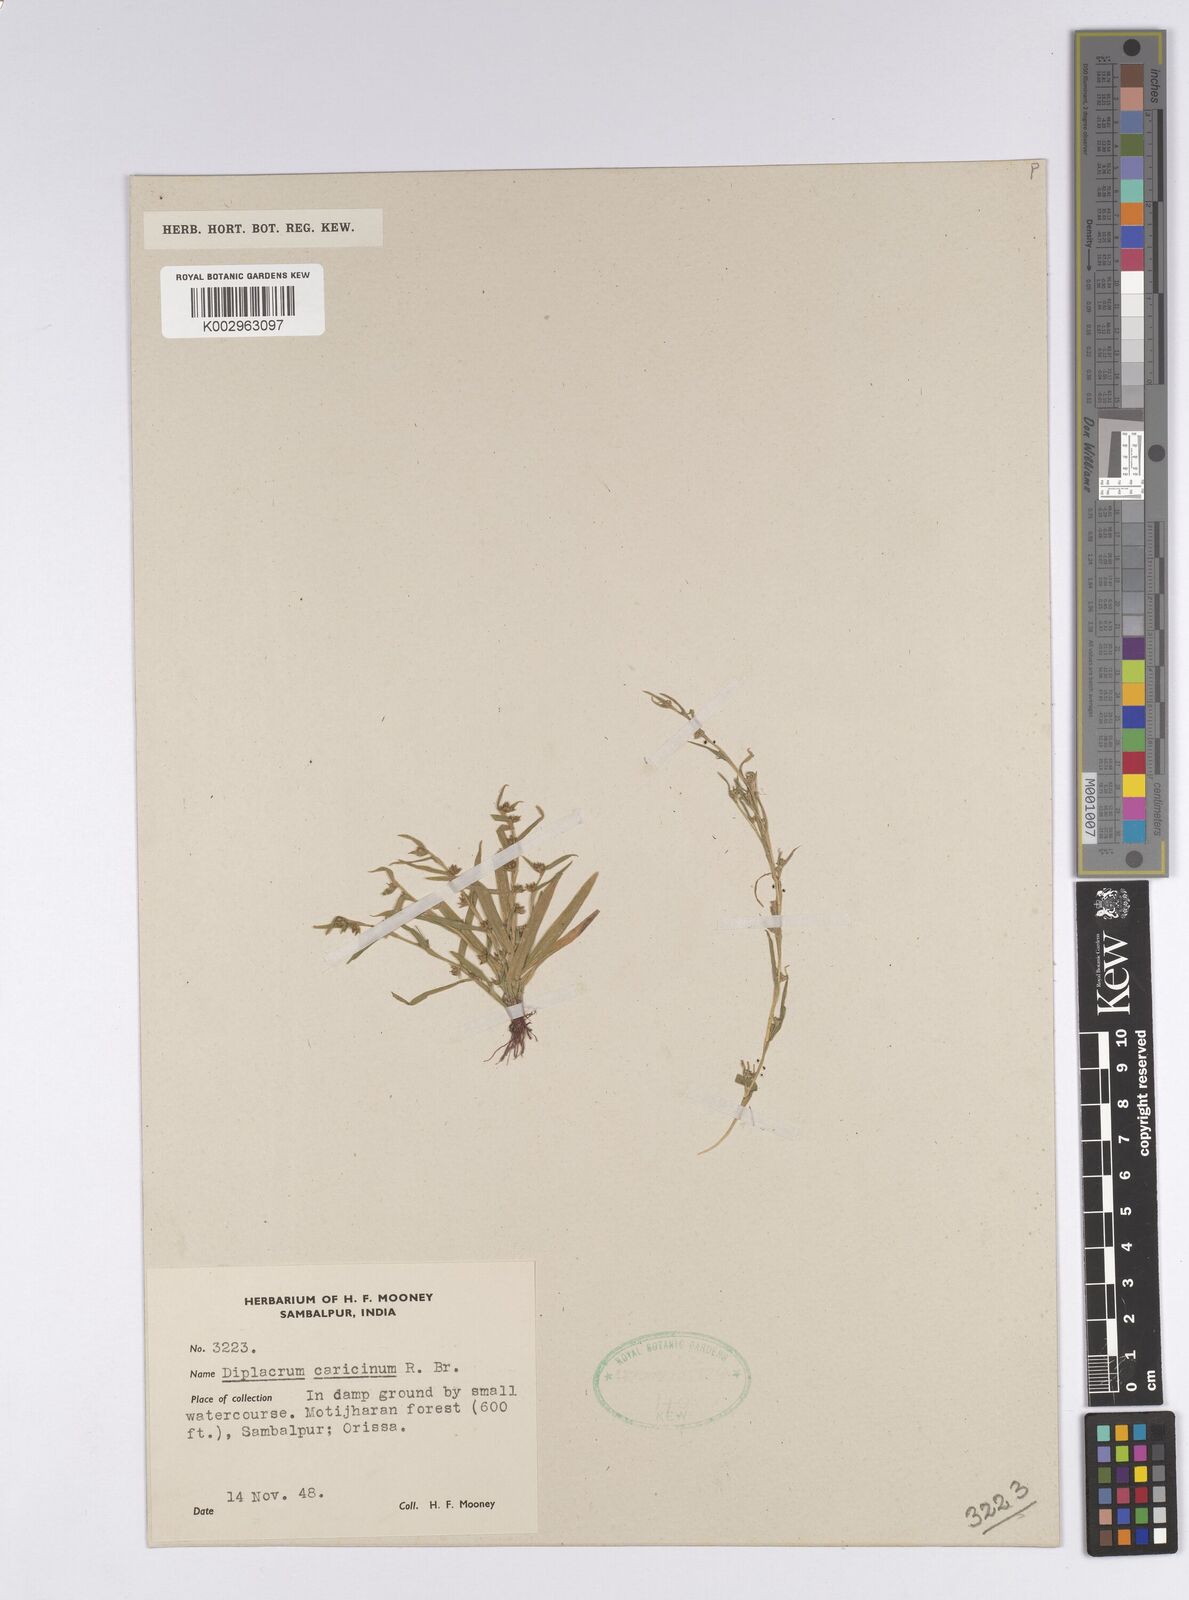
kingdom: Plantae
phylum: Tracheophyta
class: Liliopsida
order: Poales
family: Cyperaceae
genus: Diplacrum
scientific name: Diplacrum caricinum
